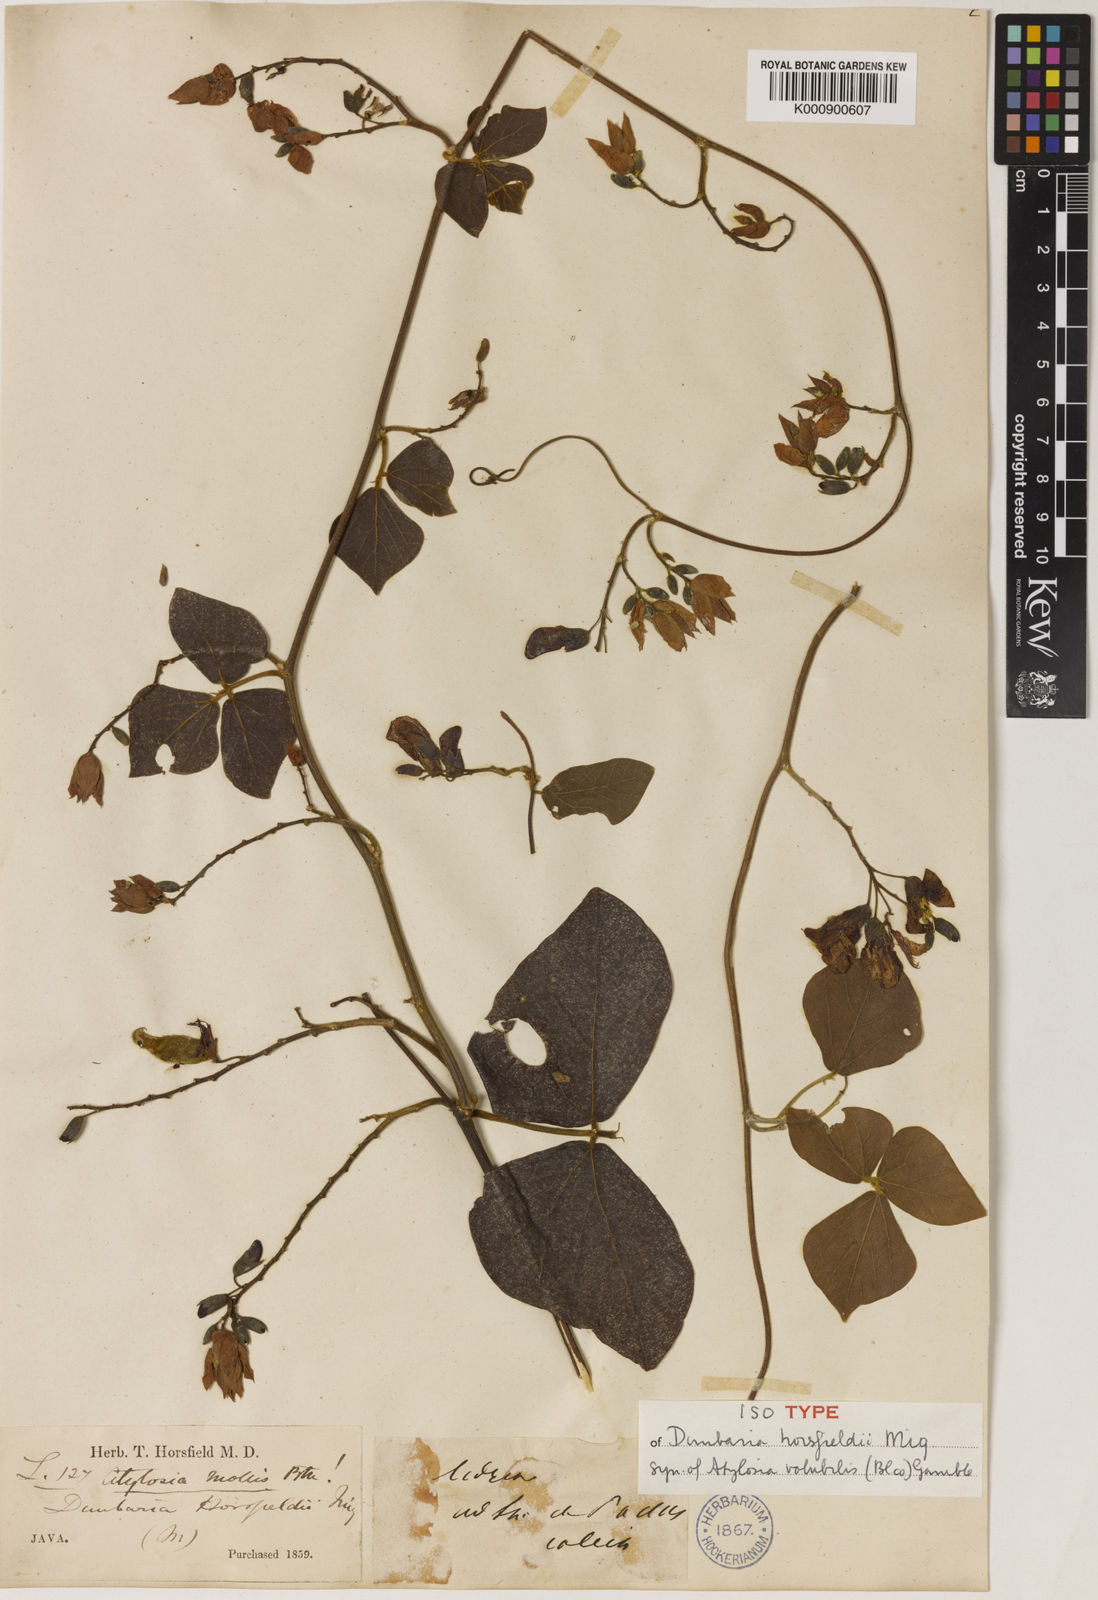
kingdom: Plantae
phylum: Tracheophyta
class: Magnoliopsida
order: Fabales
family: Fabaceae
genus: Cajanus
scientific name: Cajanus mollis
